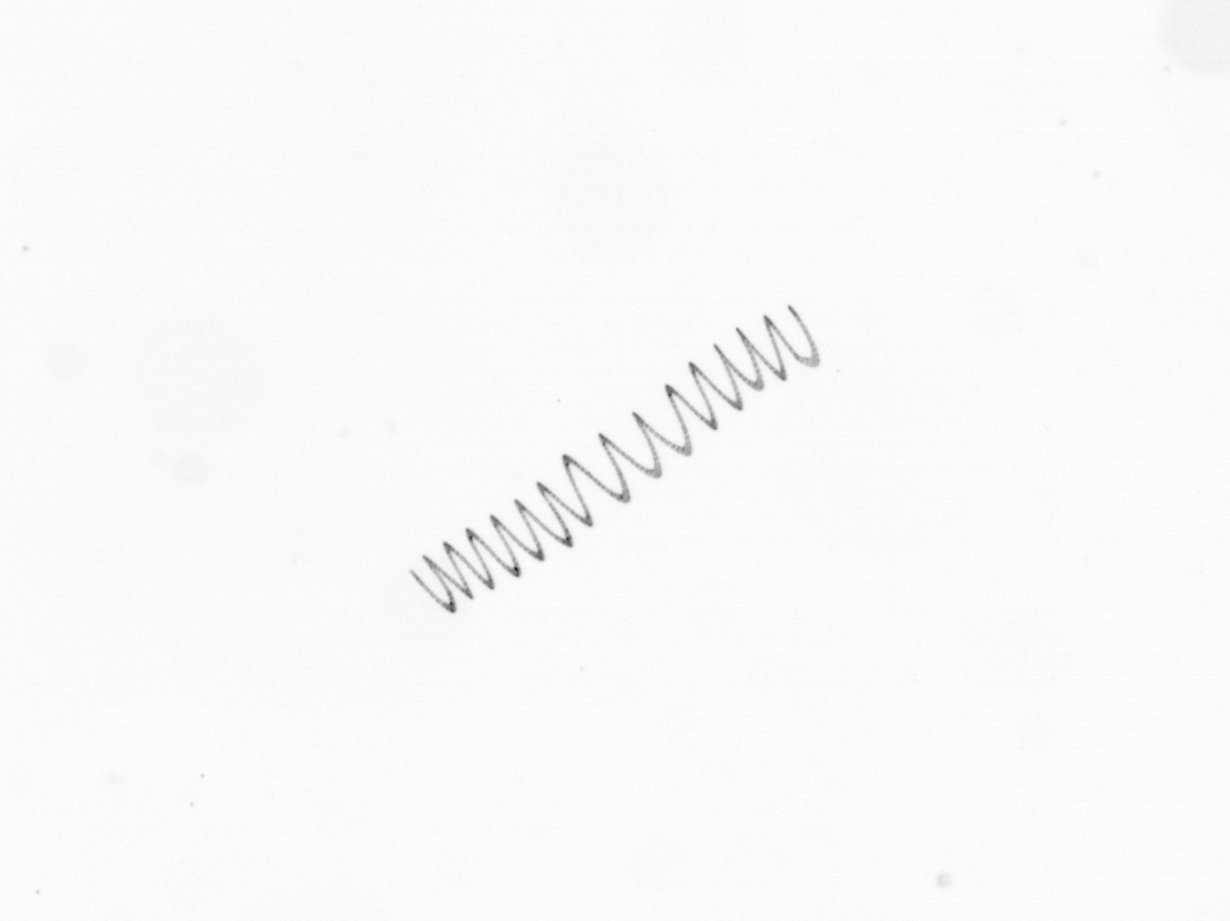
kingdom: Chromista
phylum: Ochrophyta
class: Bacillariophyceae
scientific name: Bacillariophyceae
